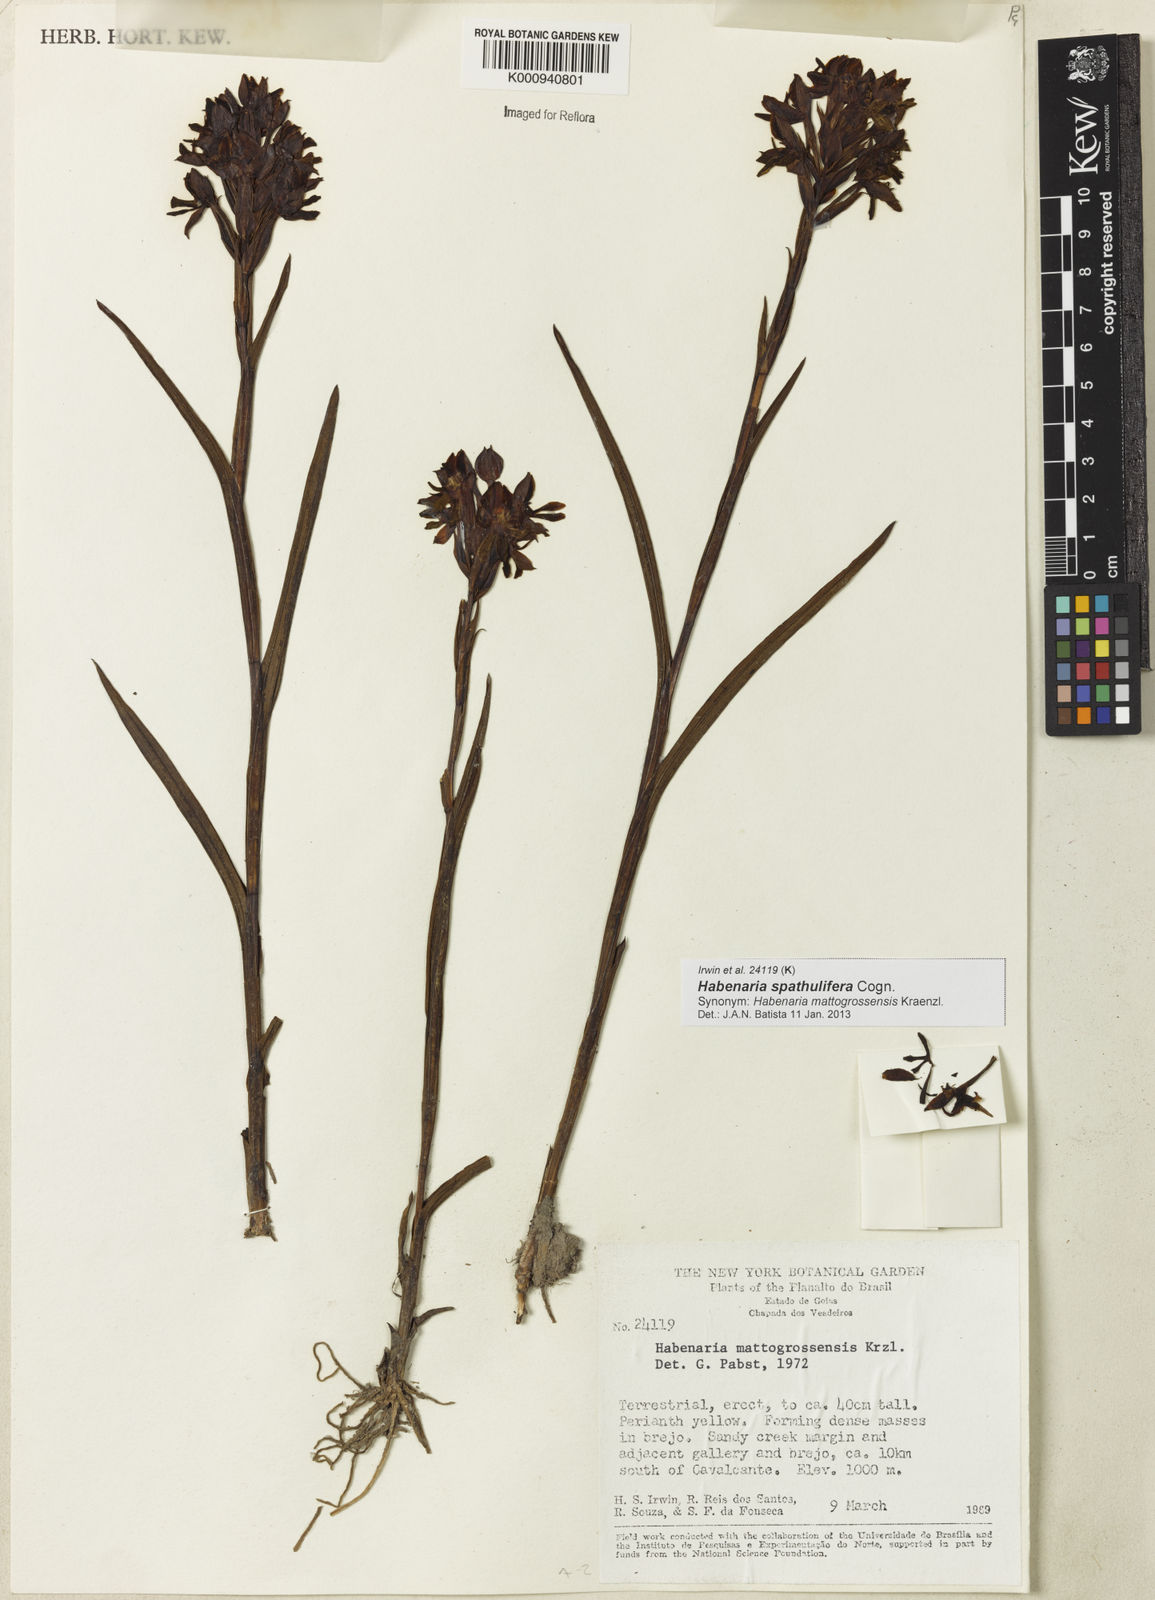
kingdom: Plantae
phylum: Tracheophyta
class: Liliopsida
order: Asparagales
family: Orchidaceae
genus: Habenaria
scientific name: Habenaria spathulifera
